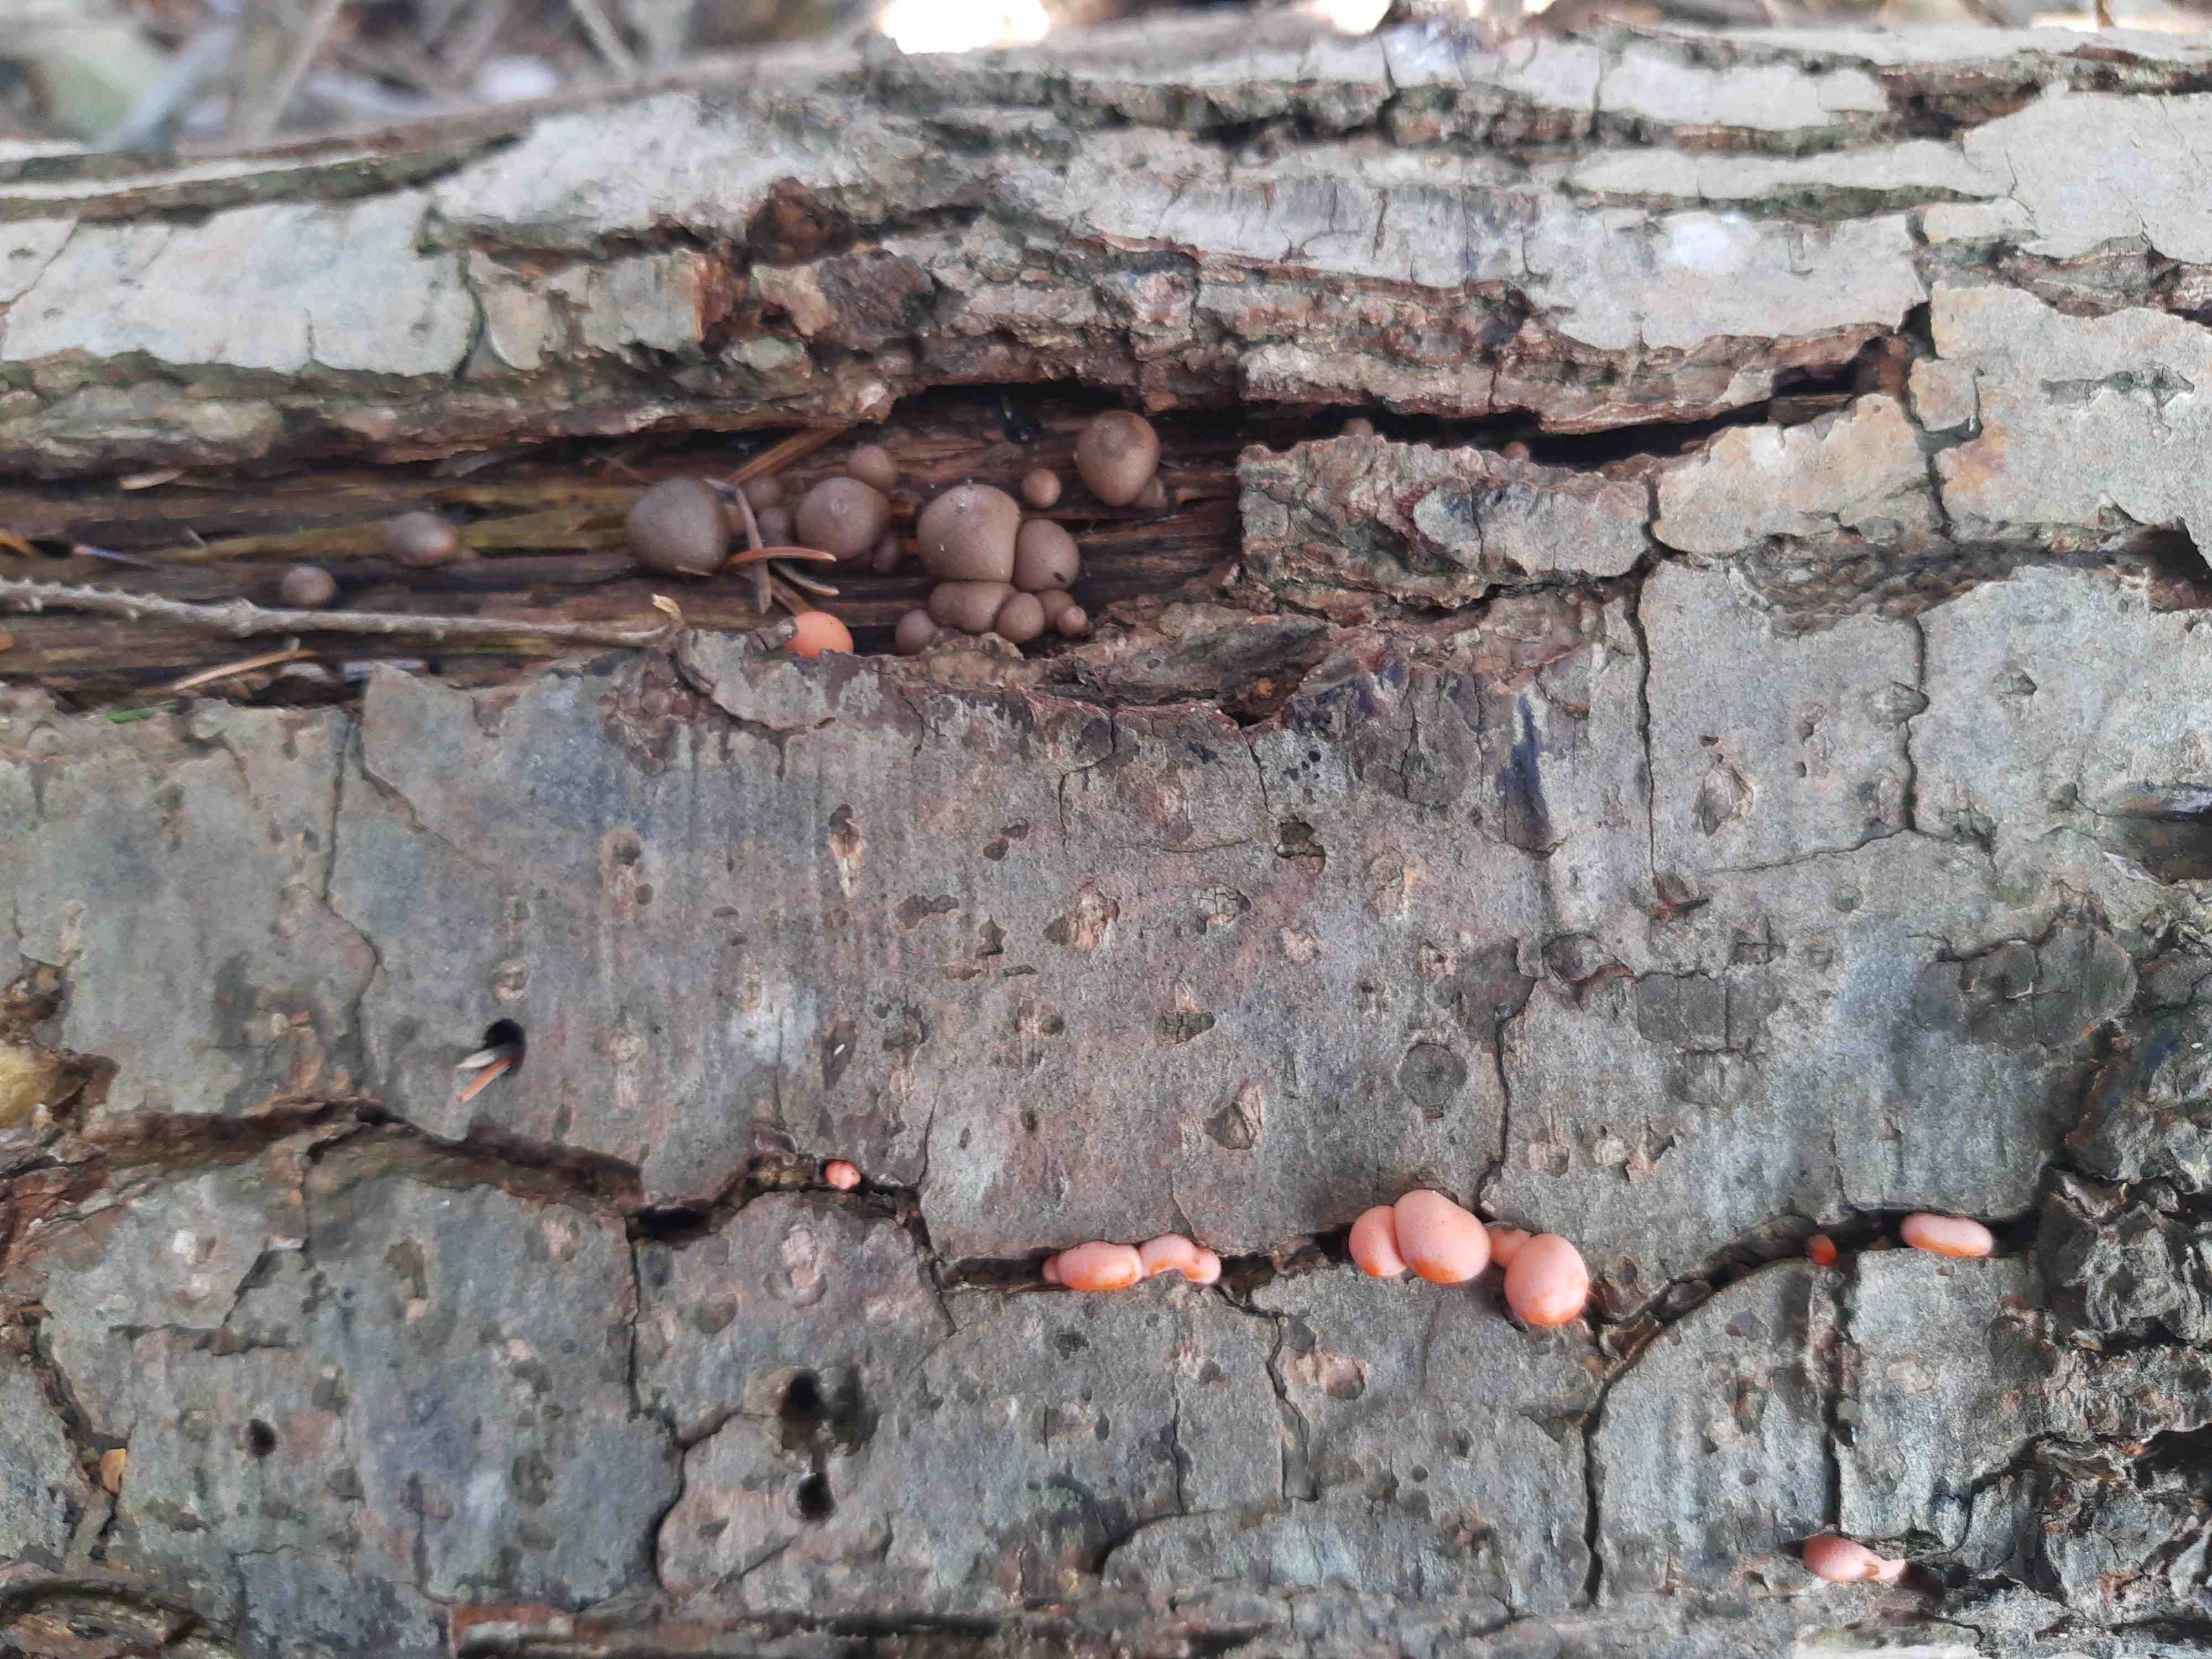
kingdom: Protozoa
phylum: Mycetozoa
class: Myxomycetes
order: Cribrariales
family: Tubiferaceae
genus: Lycogala
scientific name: Lycogala epidendrum
